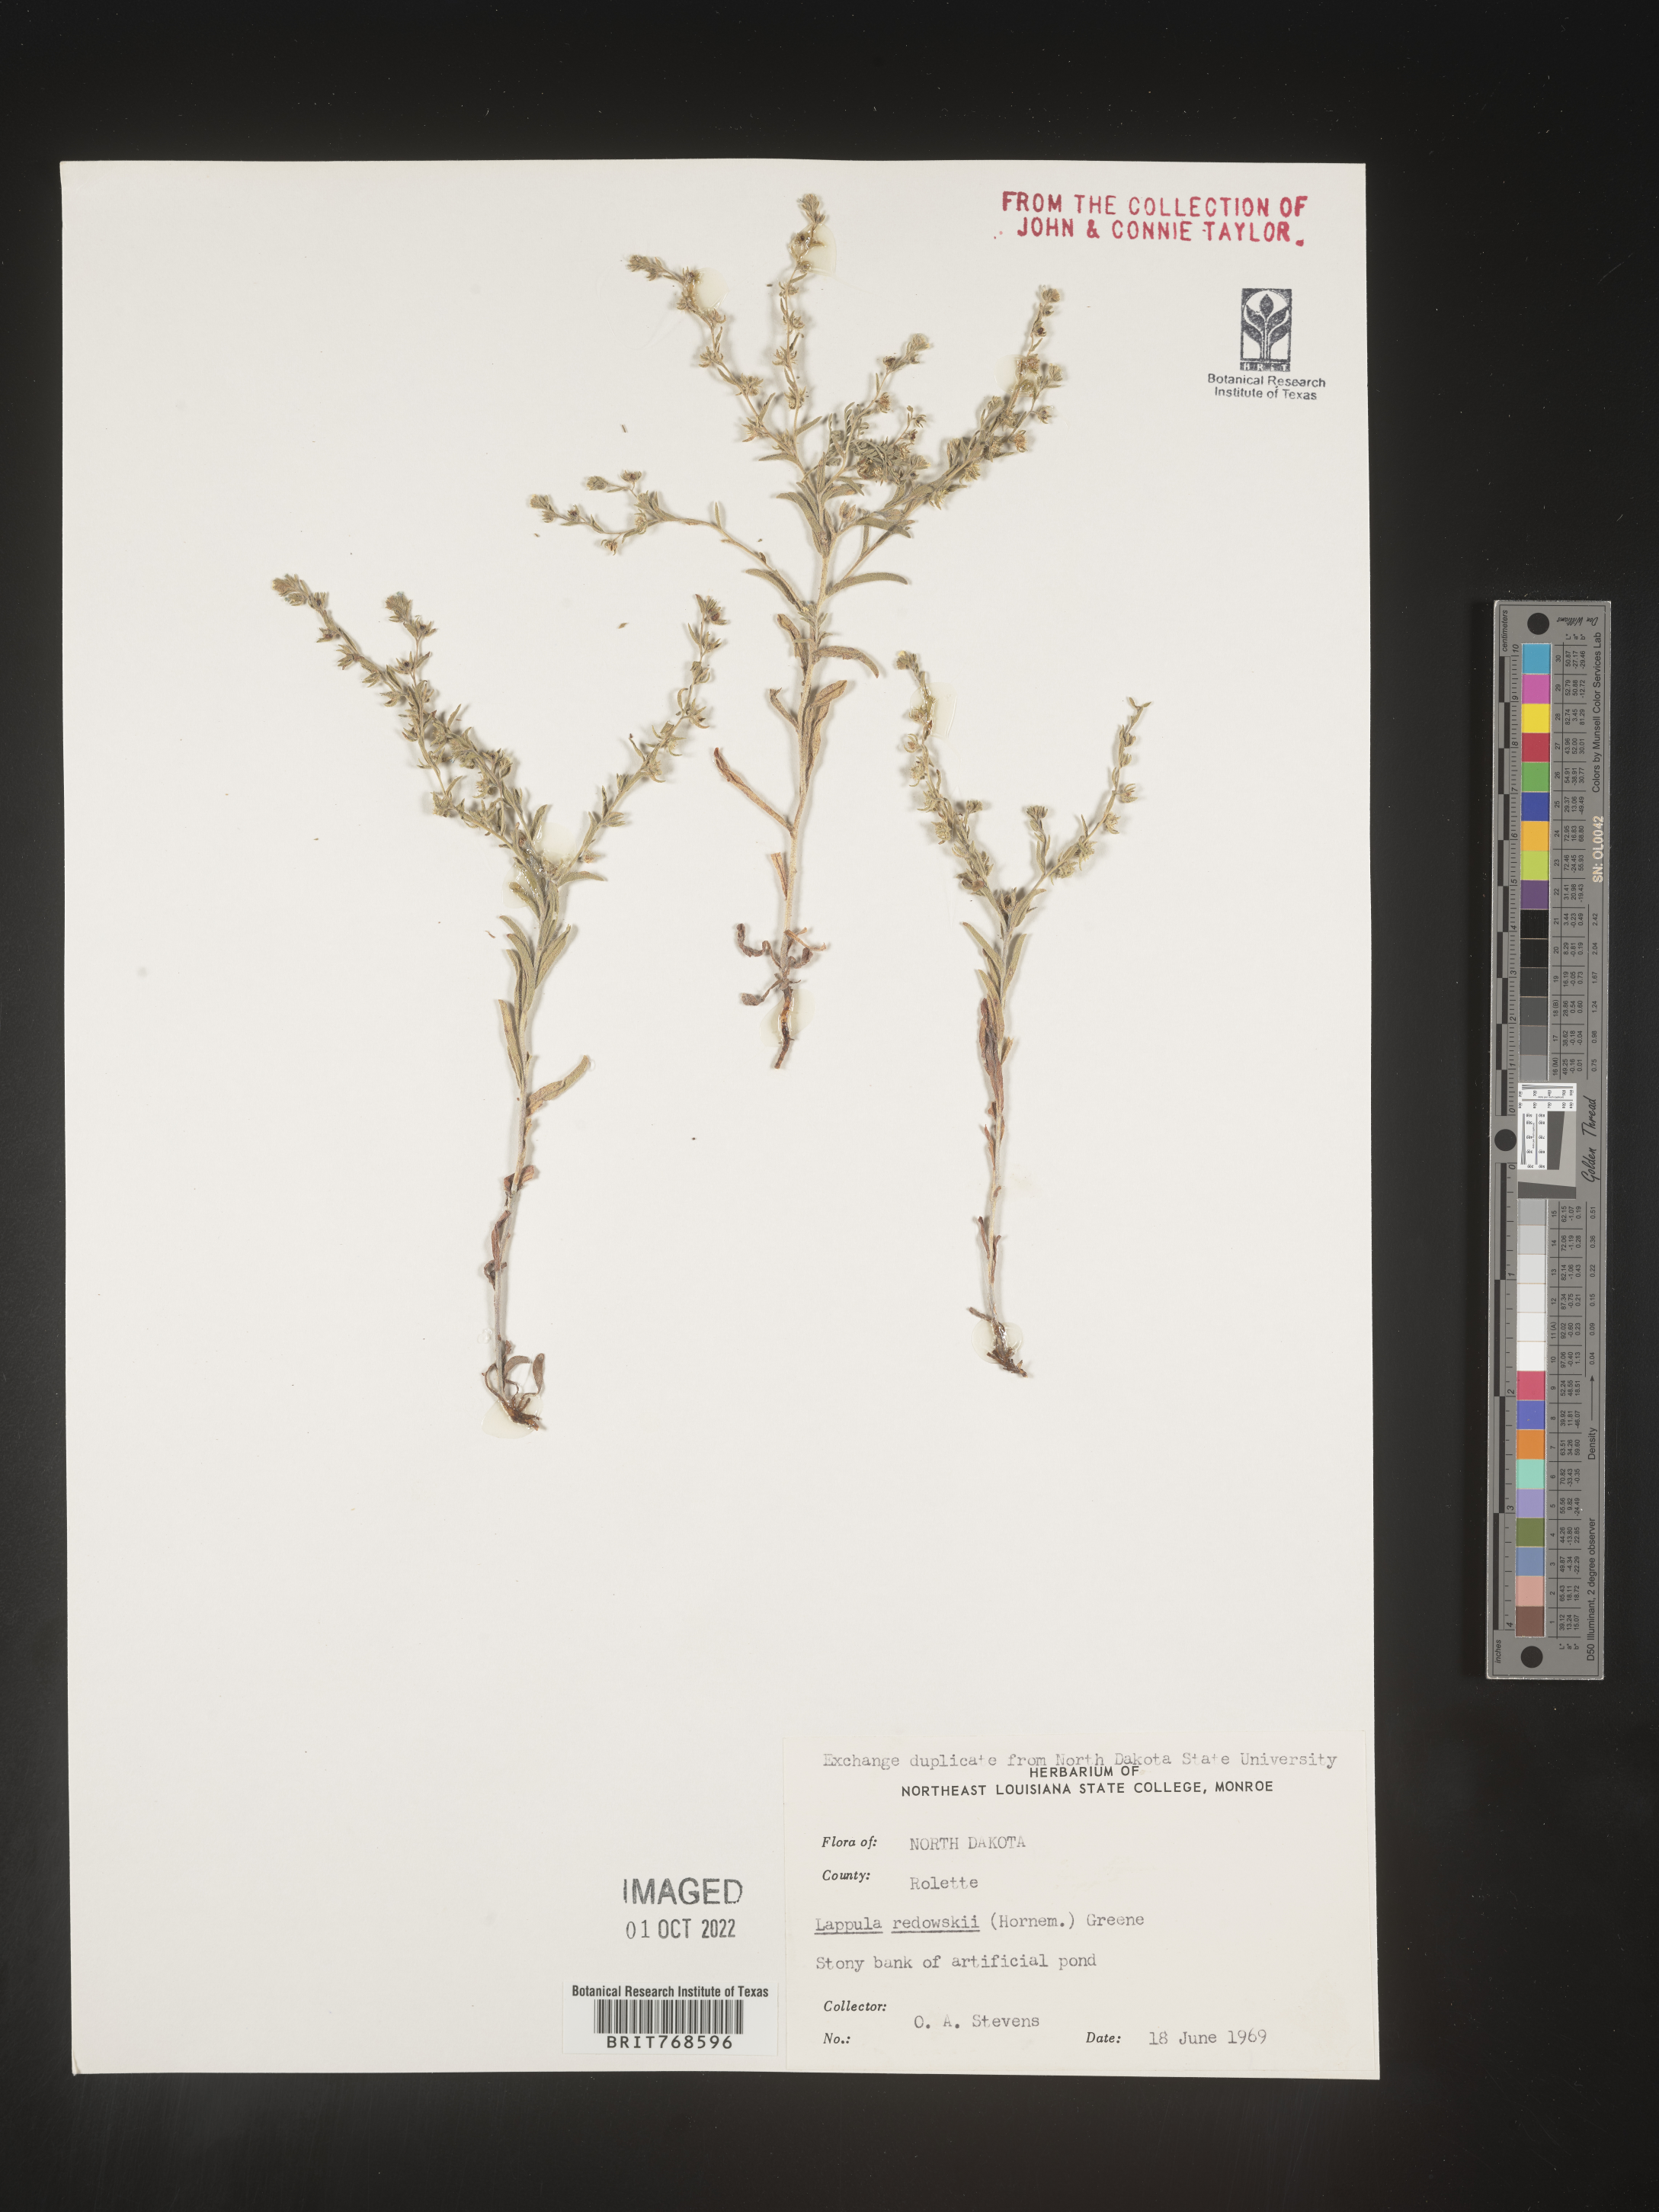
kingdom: Plantae
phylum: Tracheophyta
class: Magnoliopsida
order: Boraginales
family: Boraginaceae
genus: Lappula
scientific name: Lappula redowskii
